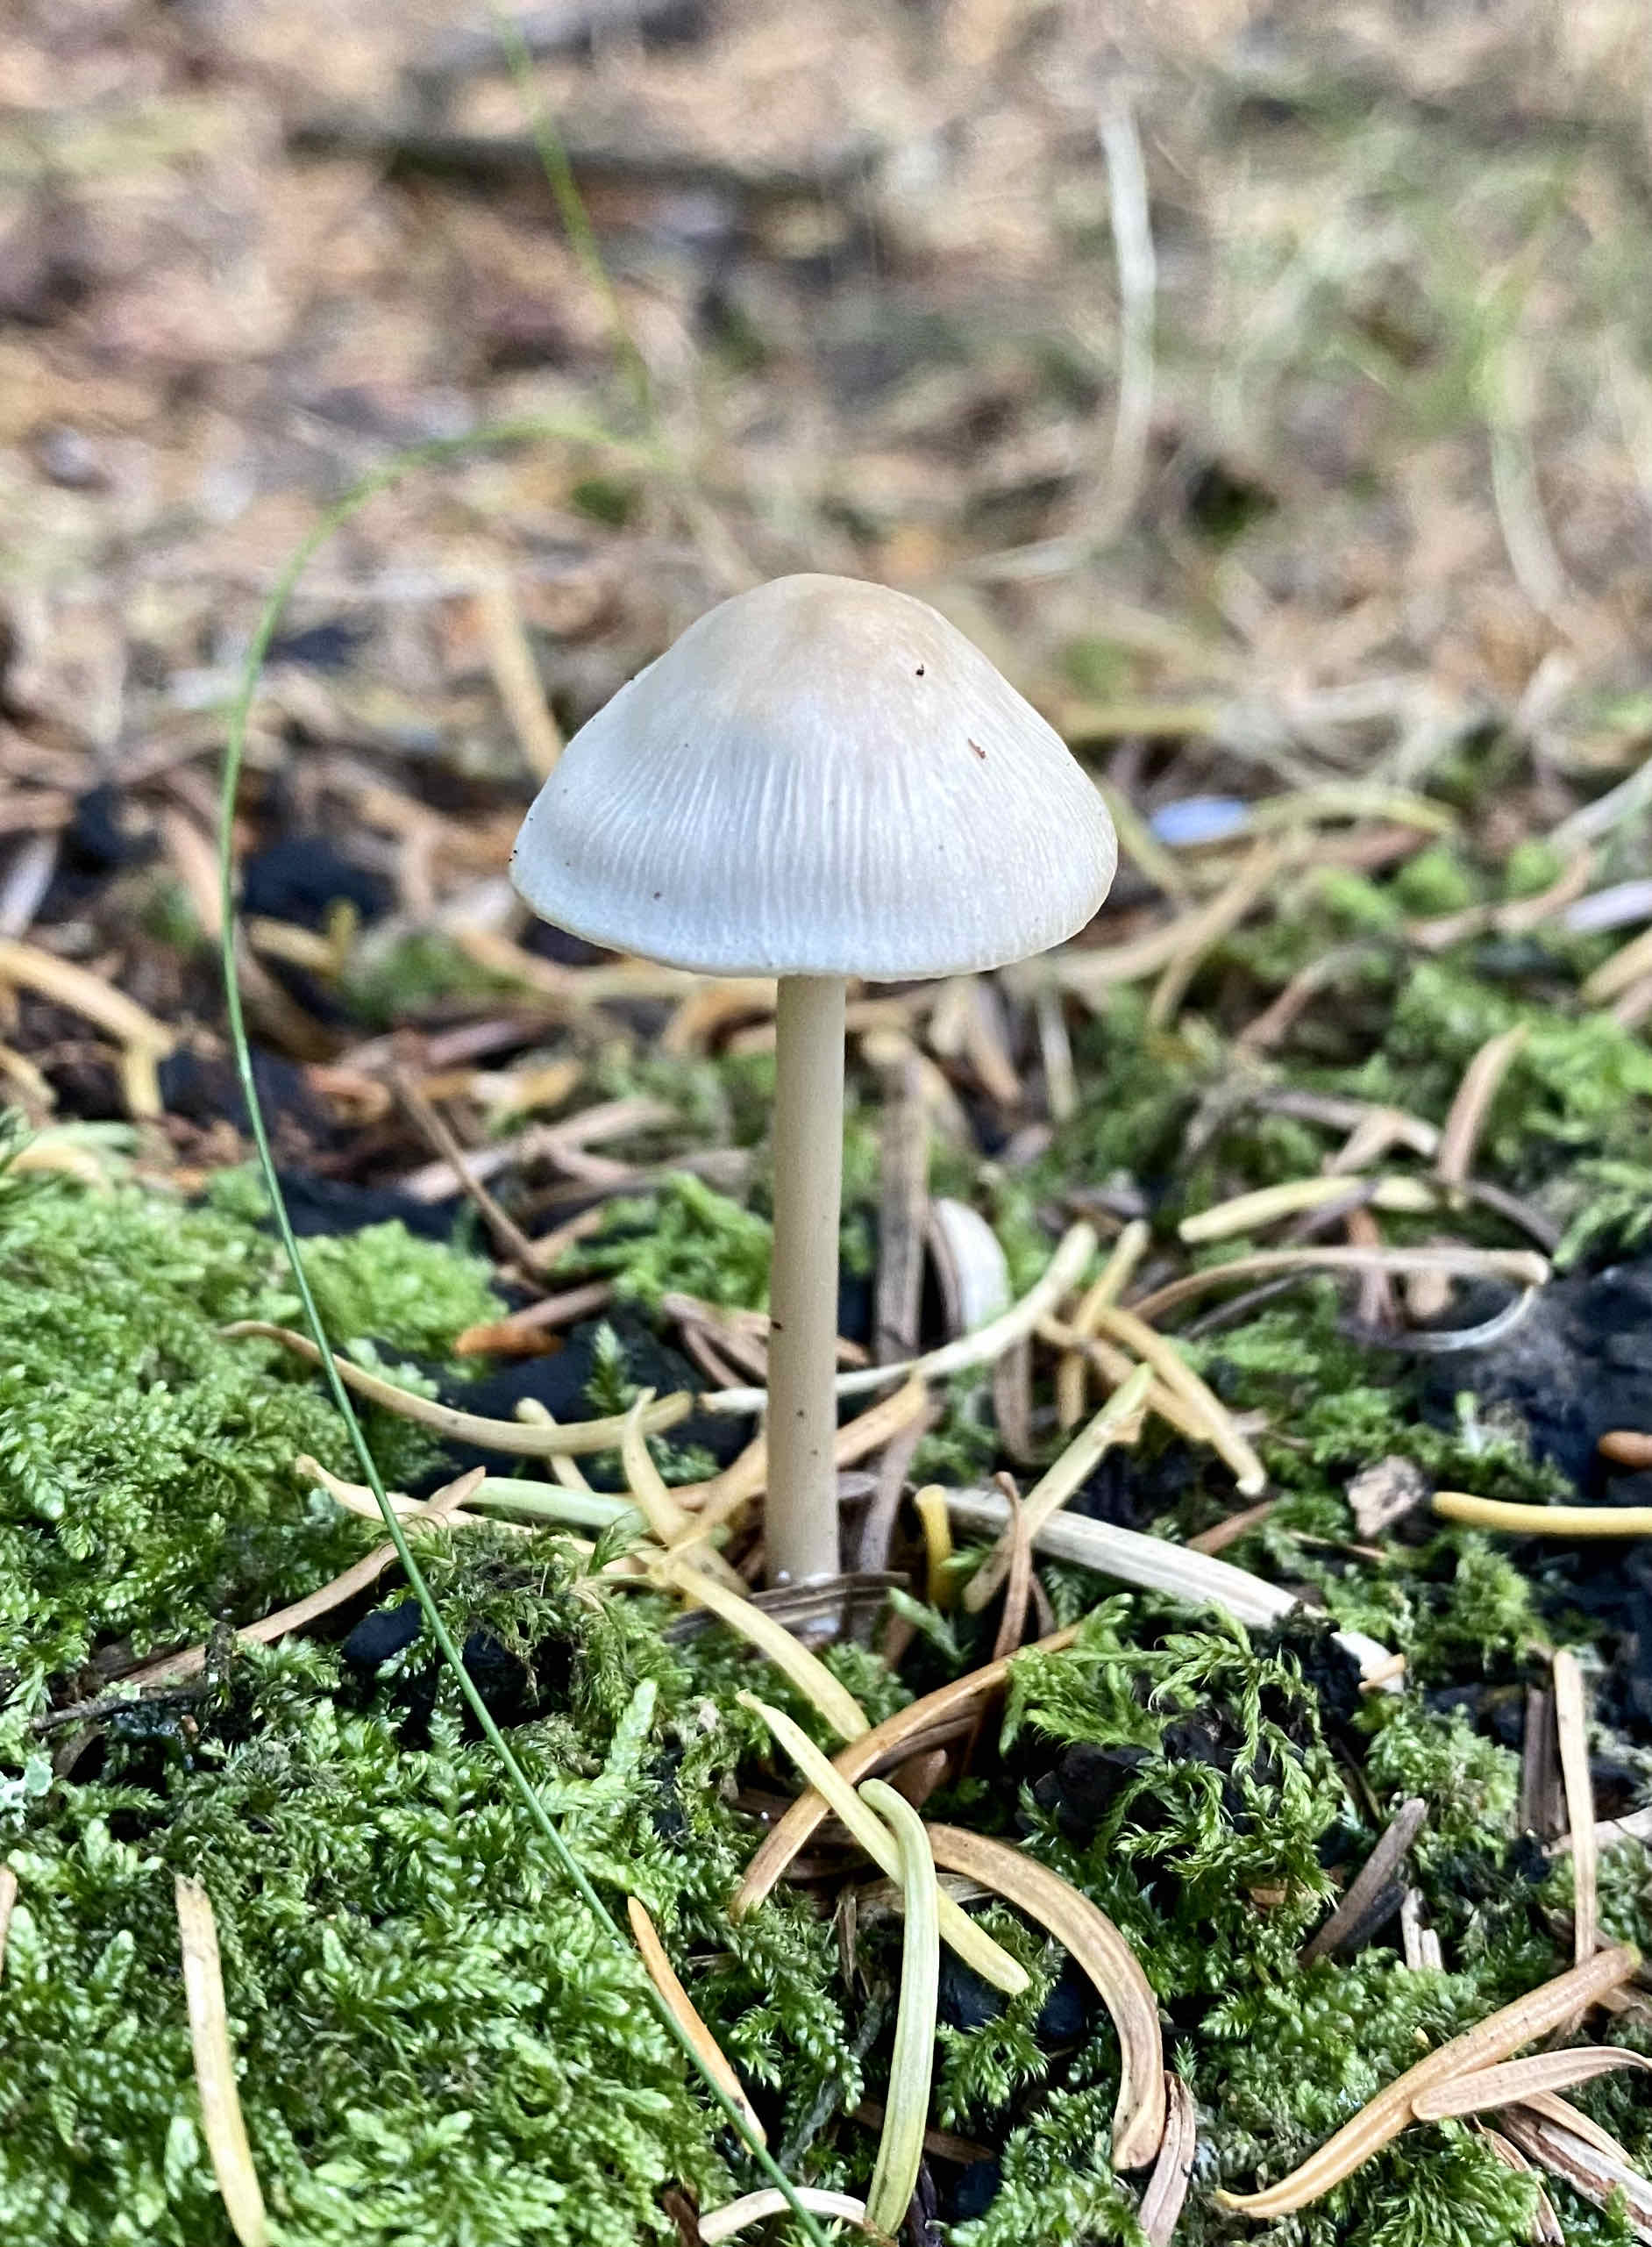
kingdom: Fungi
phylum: Basidiomycota
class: Agaricomycetes
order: Agaricales
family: Mycenaceae
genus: Mycena
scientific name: Mycena galericulata
